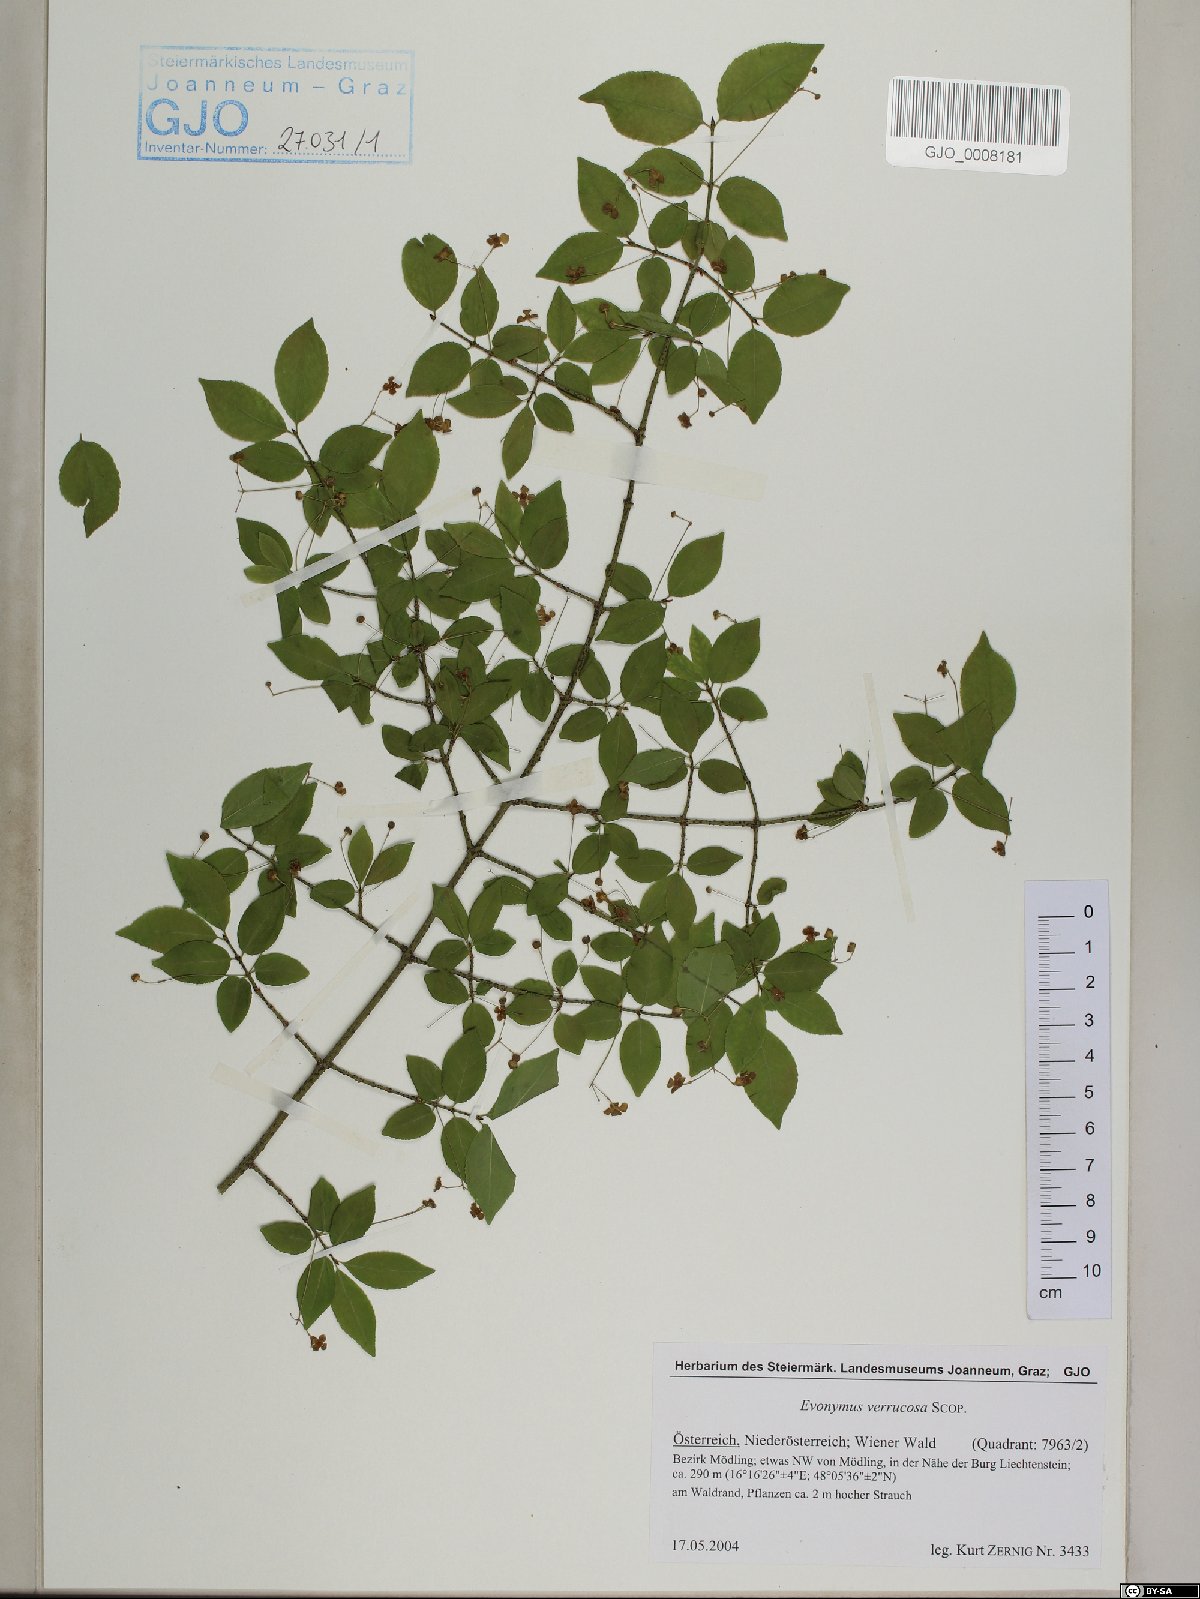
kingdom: Plantae
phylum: Tracheophyta
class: Magnoliopsida
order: Celastrales
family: Celastraceae
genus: Euonymus
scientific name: Euonymus verrucosus
